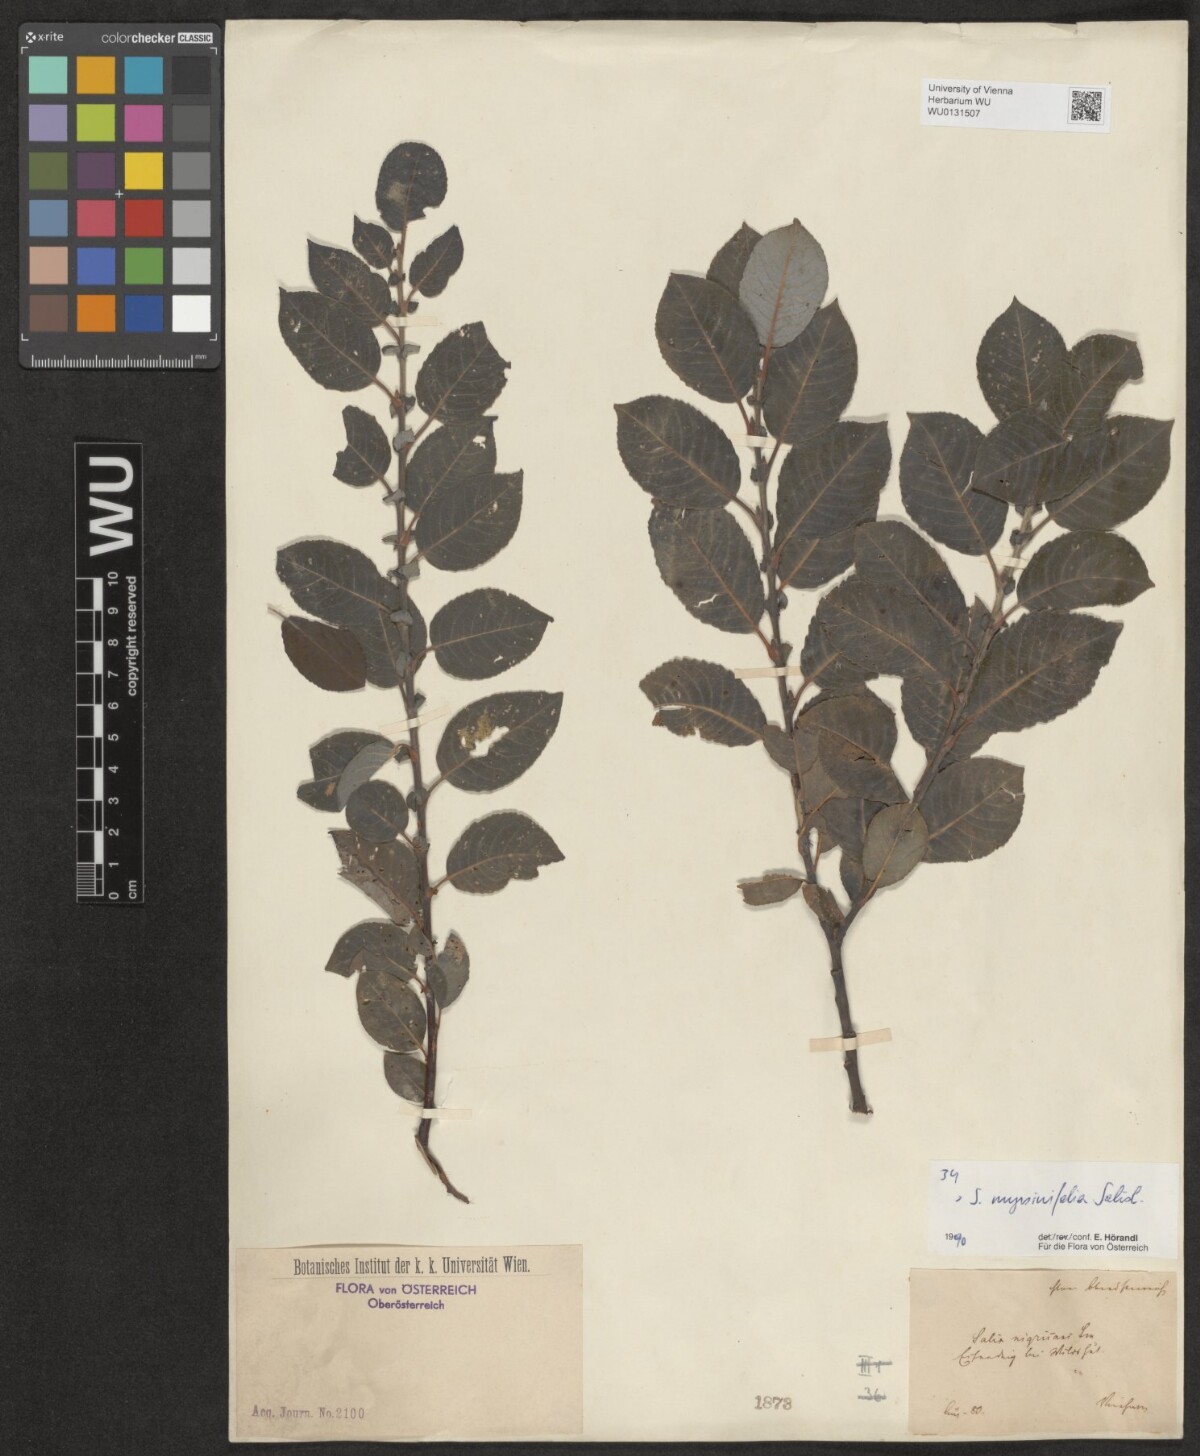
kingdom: Plantae
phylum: Tracheophyta
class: Magnoliopsida
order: Malpighiales
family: Salicaceae
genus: Salix
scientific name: Salix myrsinifolia
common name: Dark-leaved willow
